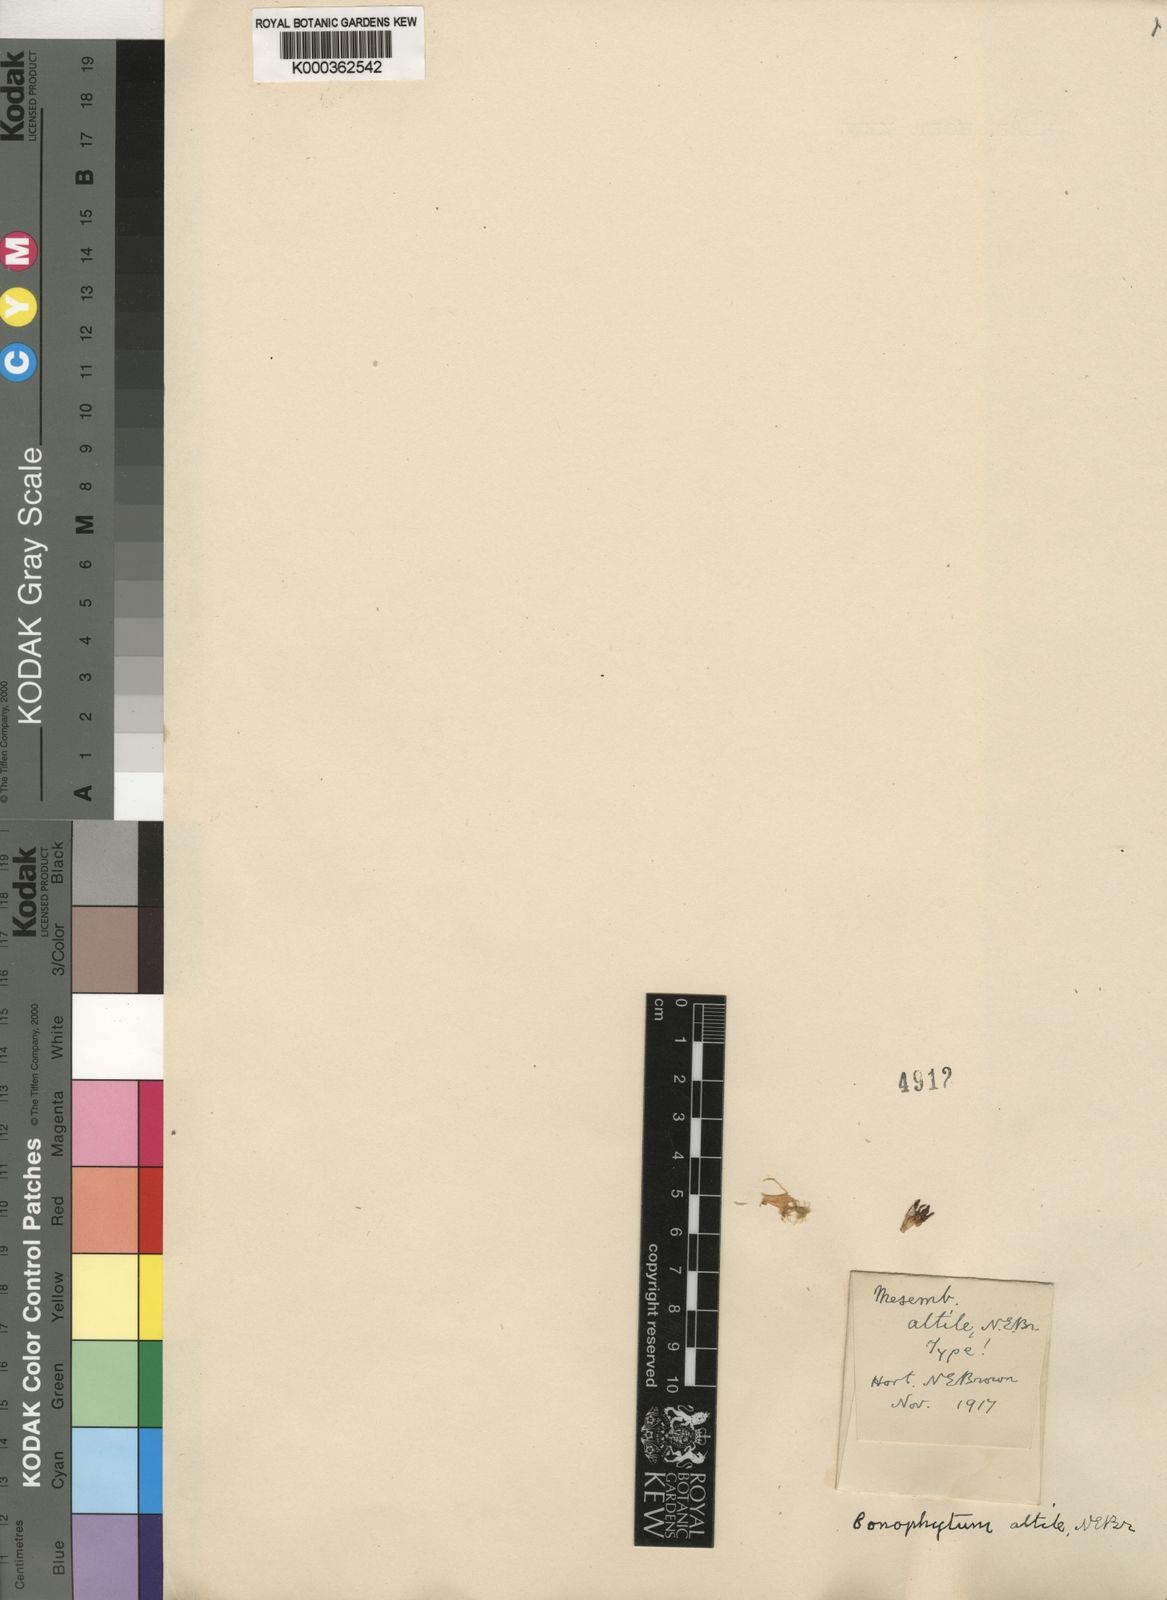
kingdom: Plantae
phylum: Tracheophyta
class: Magnoliopsida
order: Caryophyllales
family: Aizoaceae
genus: Conophytum
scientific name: Conophytum ficiforme
